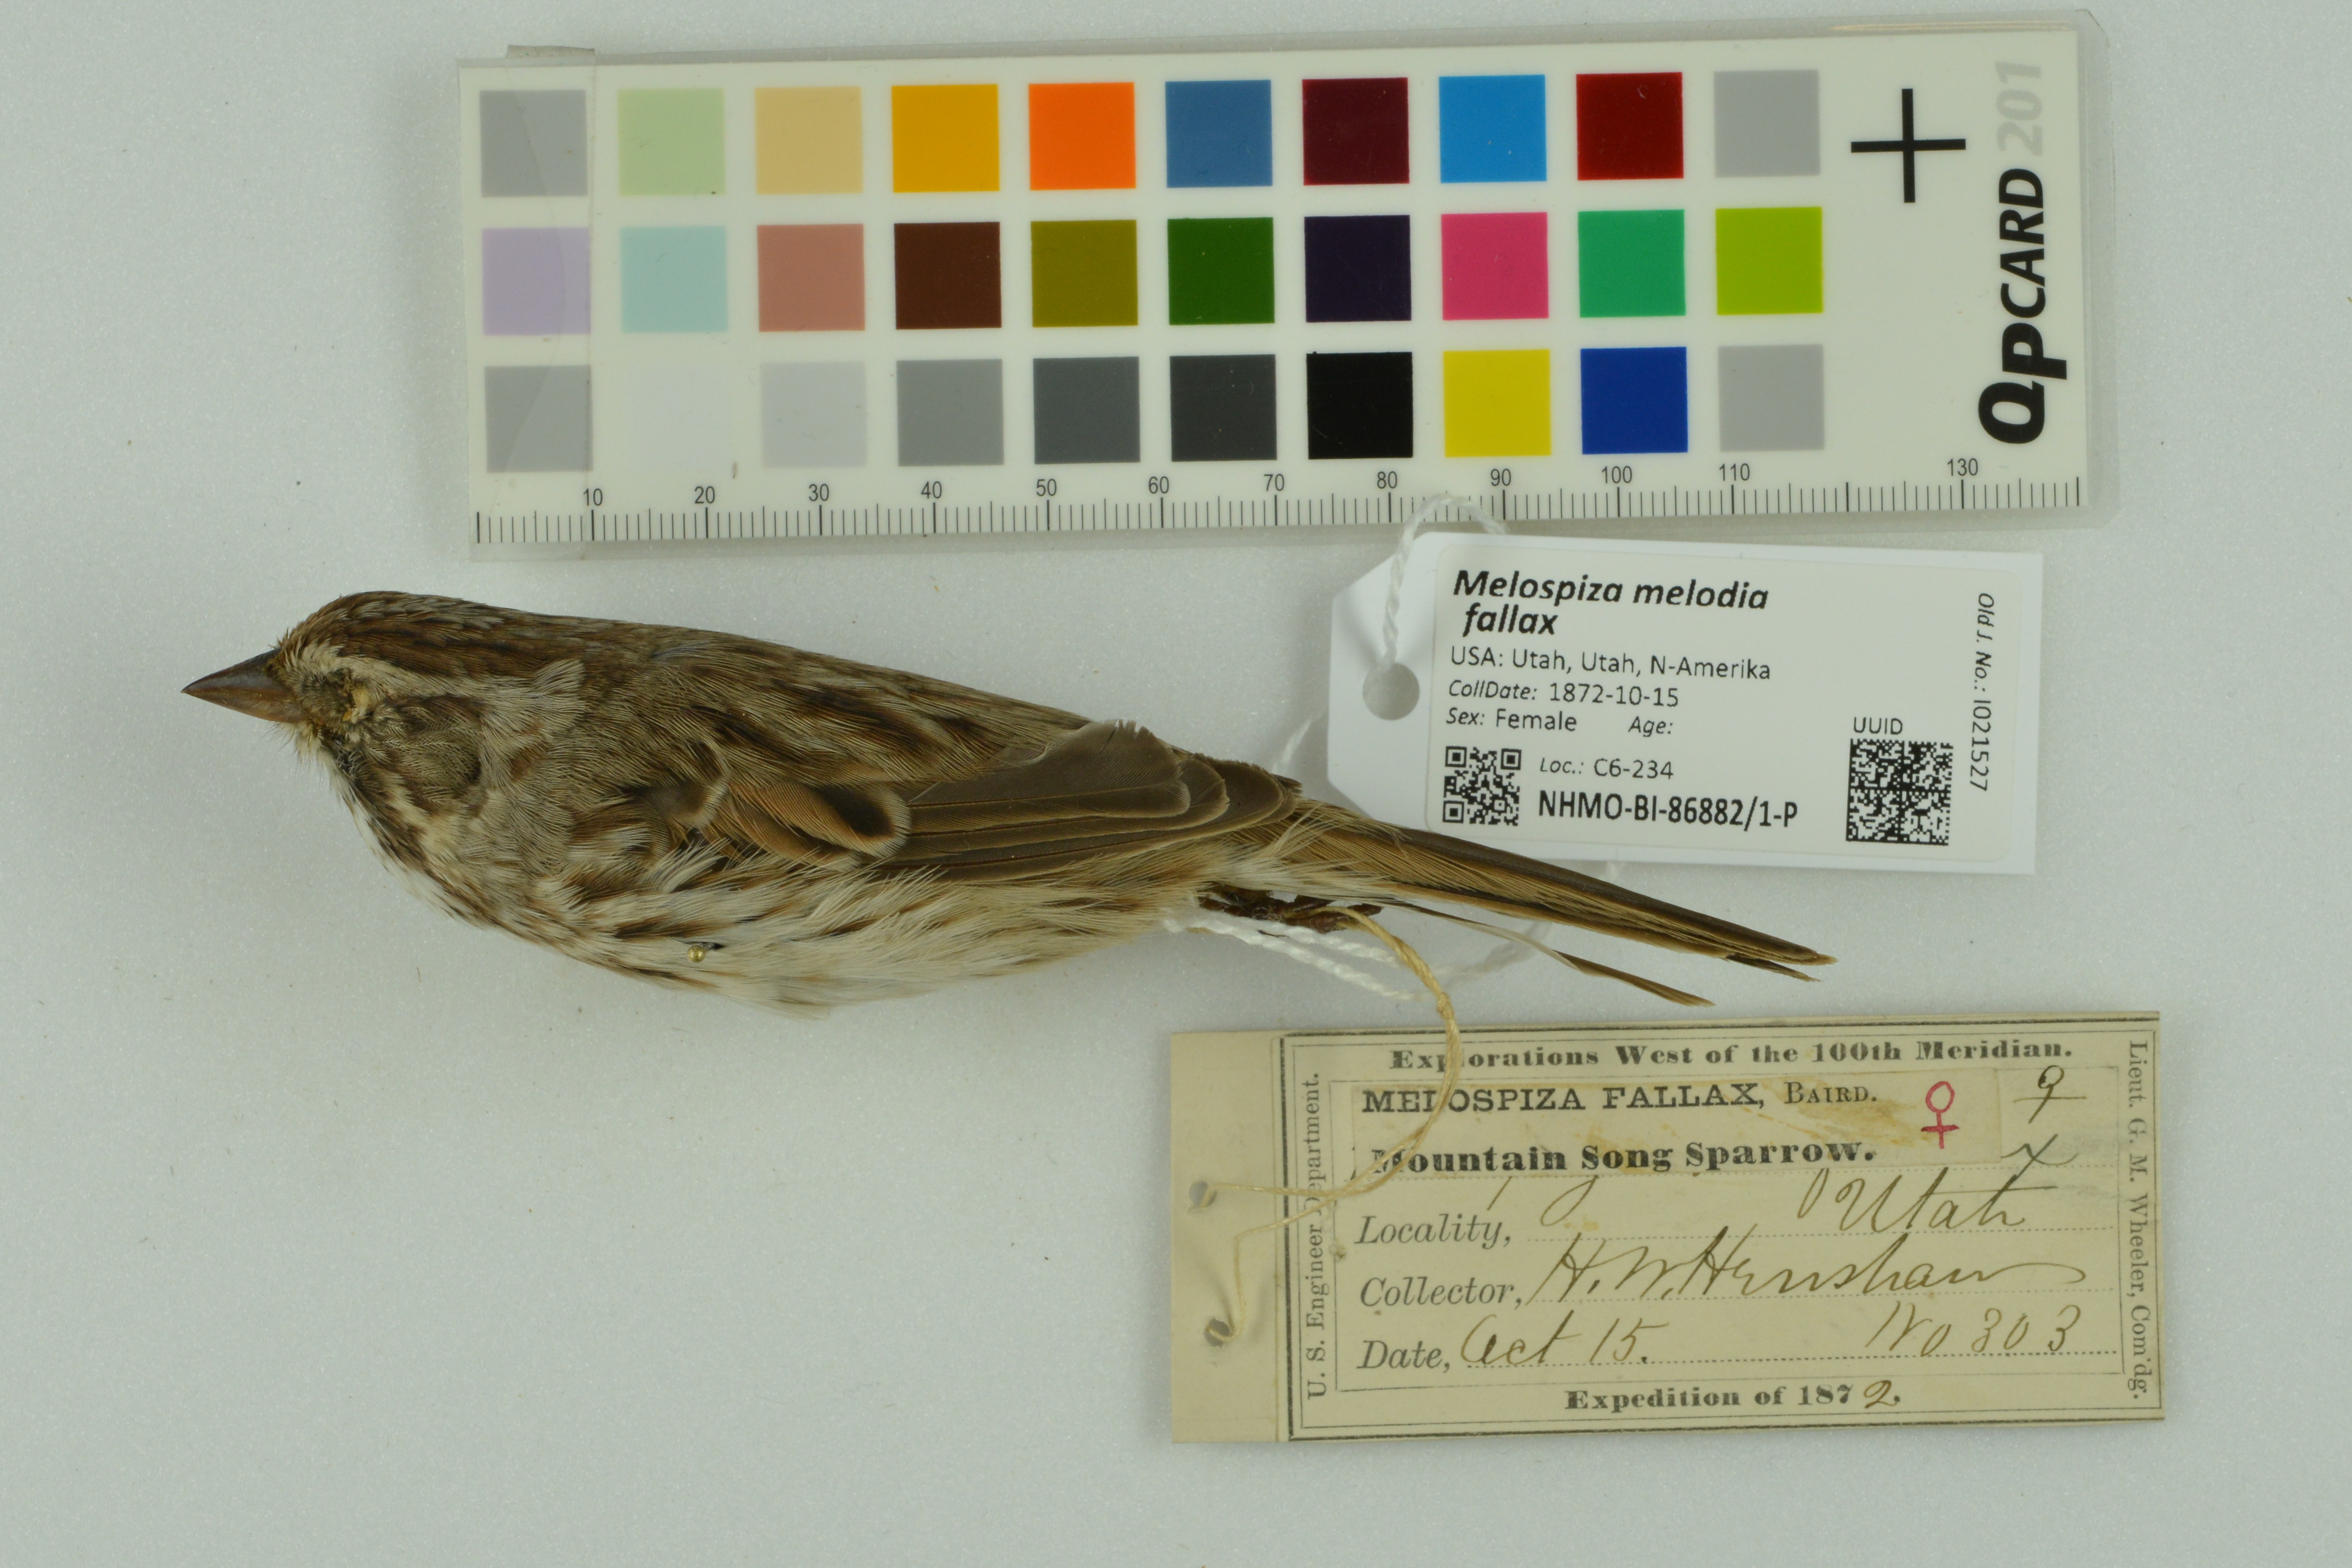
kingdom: Animalia
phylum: Chordata
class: Aves
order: Passeriformes
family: Passerellidae
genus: Melospiza
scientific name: Melospiza melodia
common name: Song sparrow
